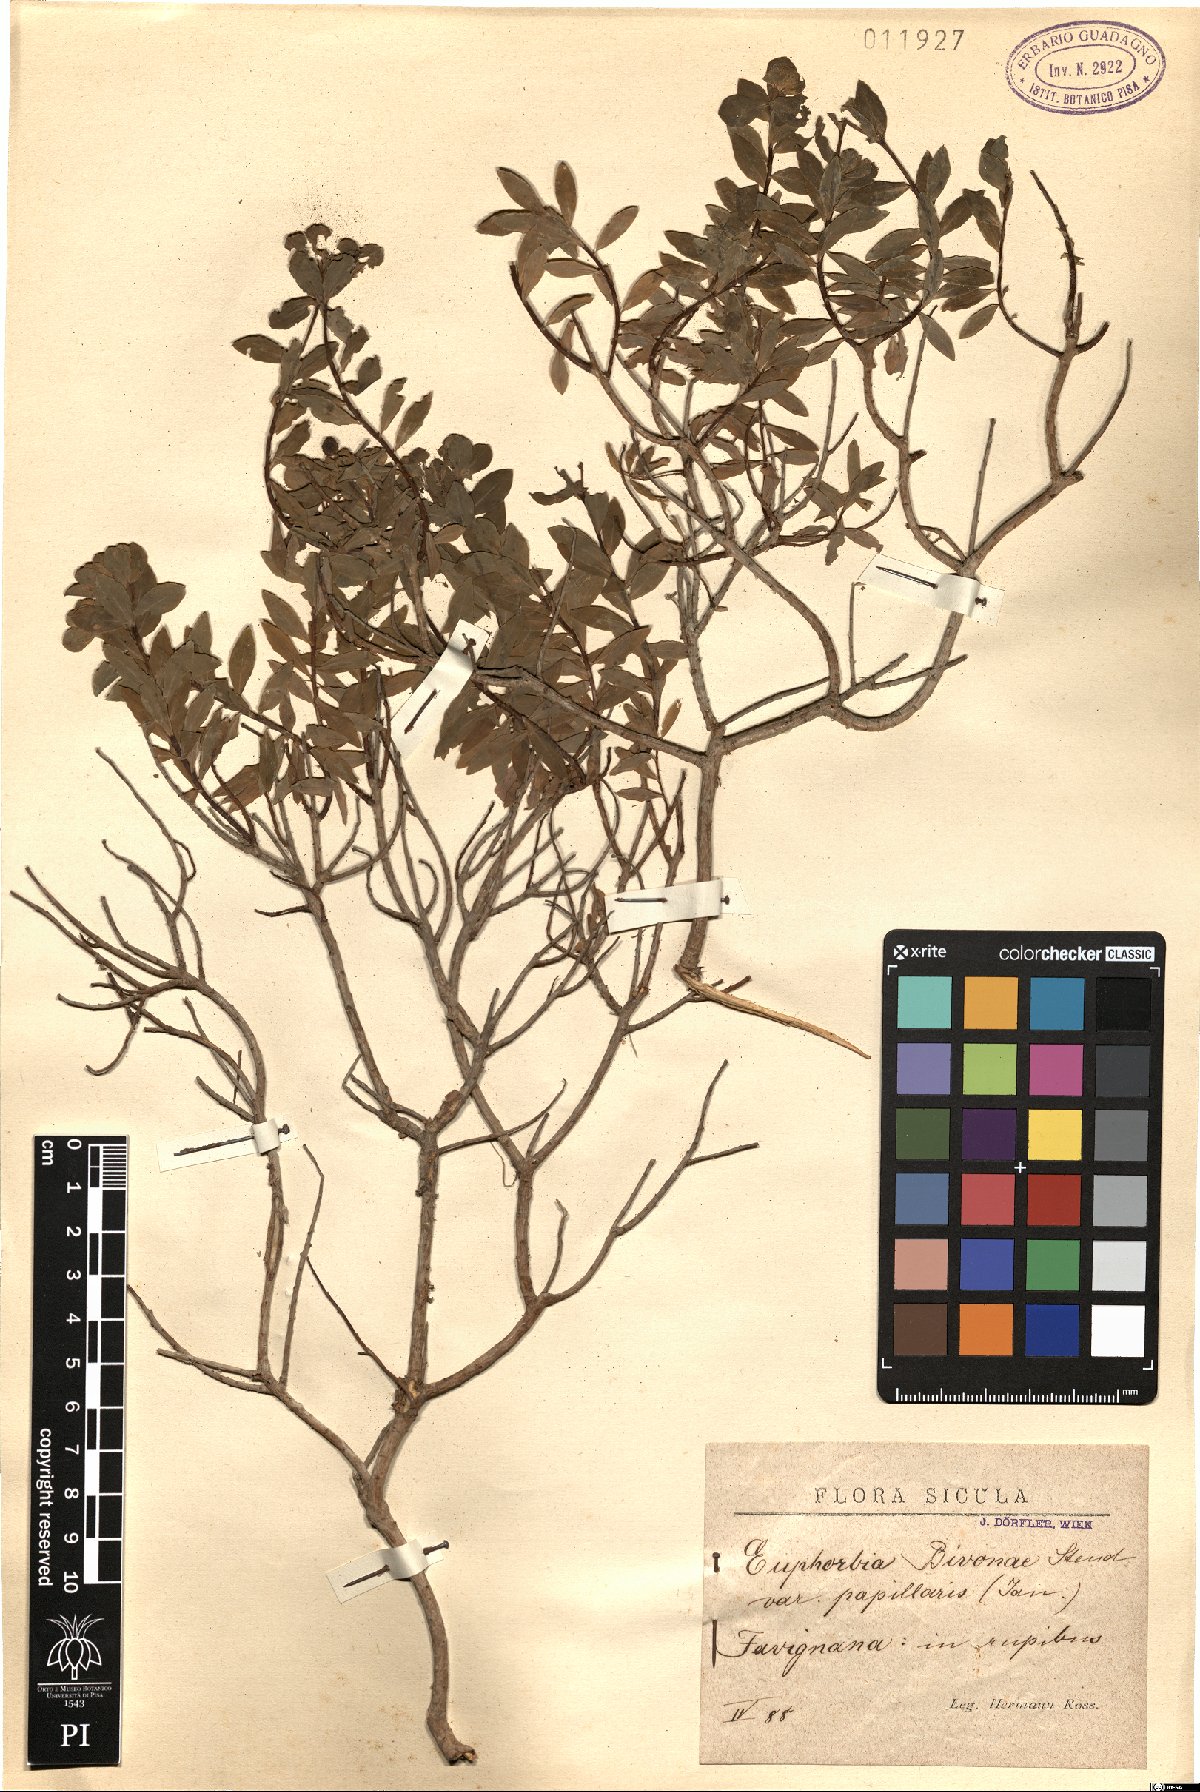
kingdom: Plantae
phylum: Tracheophyta
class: Magnoliopsida
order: Malpighiales
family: Euphorbiaceae
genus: Euphorbia
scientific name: Euphorbia papillaris
